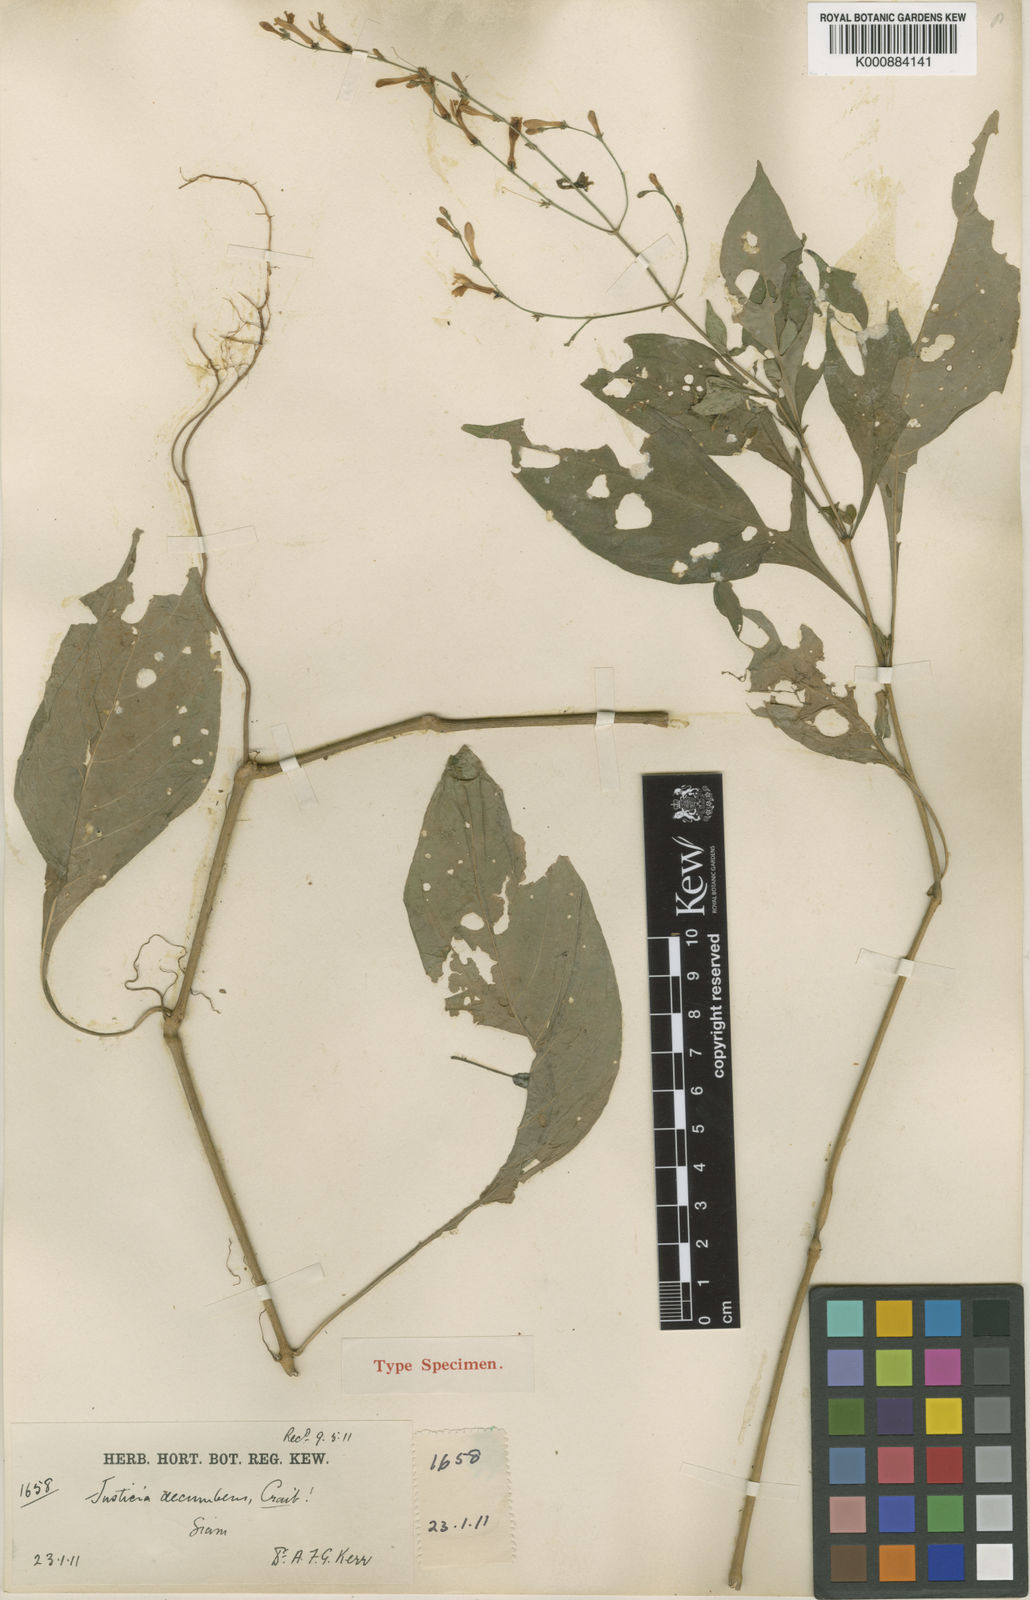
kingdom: Plantae
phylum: Tracheophyta
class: Magnoliopsida
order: Lamiales
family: Acanthaceae
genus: Justicia
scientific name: Justicia decumbens
